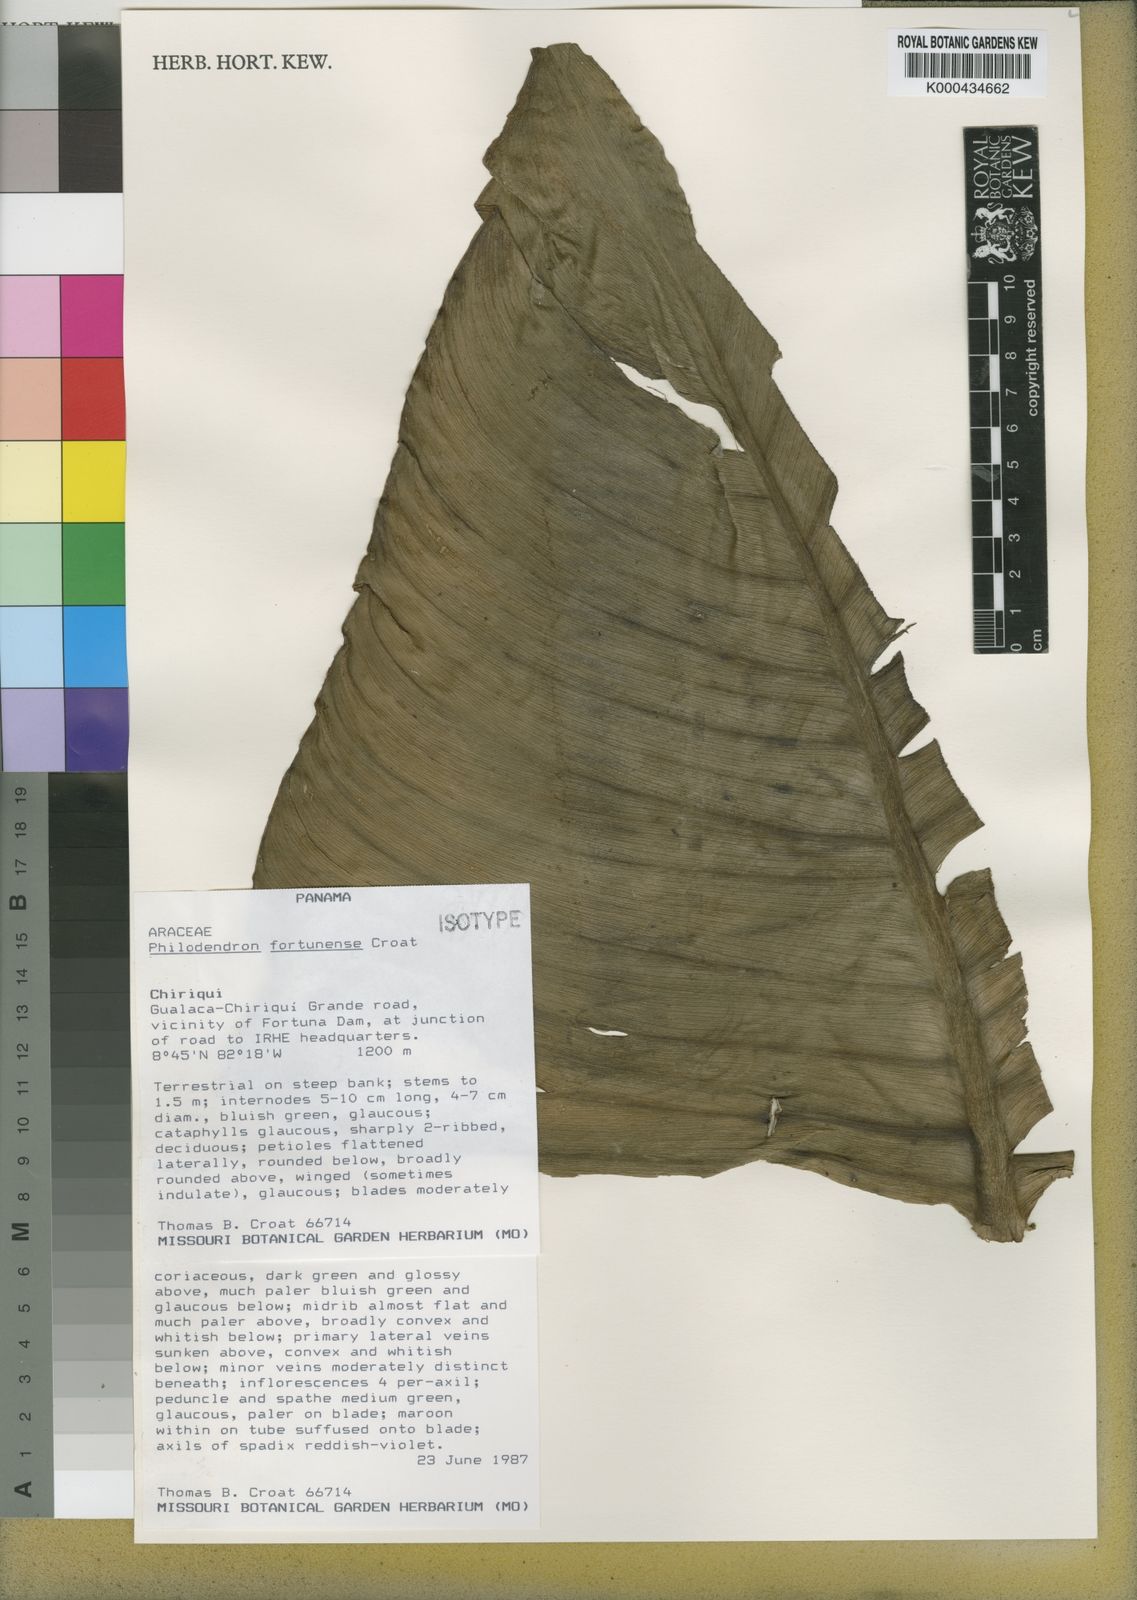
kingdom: Plantae
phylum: Tracheophyta
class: Liliopsida
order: Alismatales
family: Araceae
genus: Philodendron
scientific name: Philodendron fortunense
